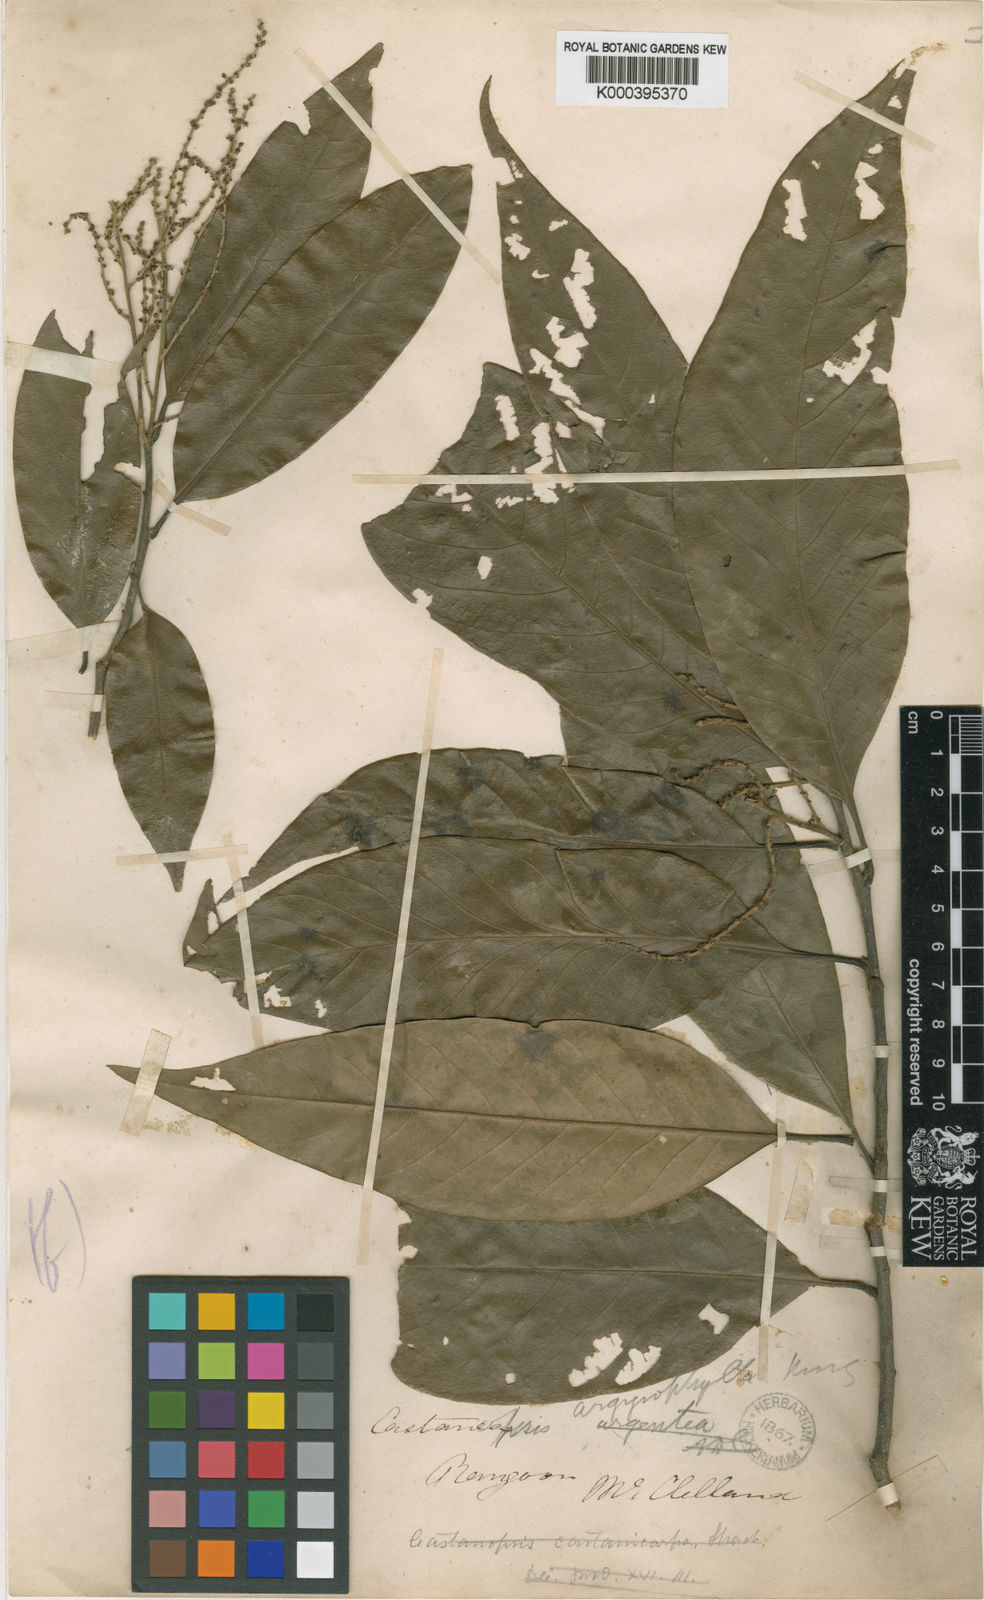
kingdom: Plantae
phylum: Tracheophyta
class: Magnoliopsida
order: Fagales
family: Fagaceae
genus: Castanopsis
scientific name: Castanopsis argyrophylla
